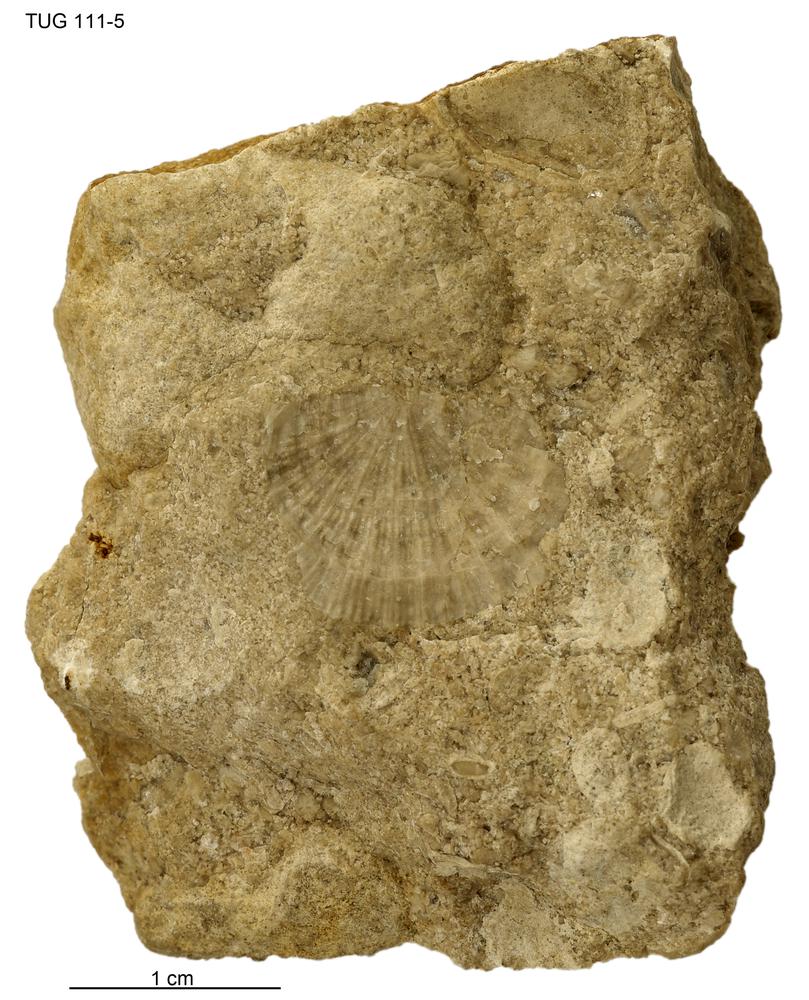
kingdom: Animalia
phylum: Brachiopoda
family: Strophomenidae
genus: Holtedahlina
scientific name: Holtedahlina
